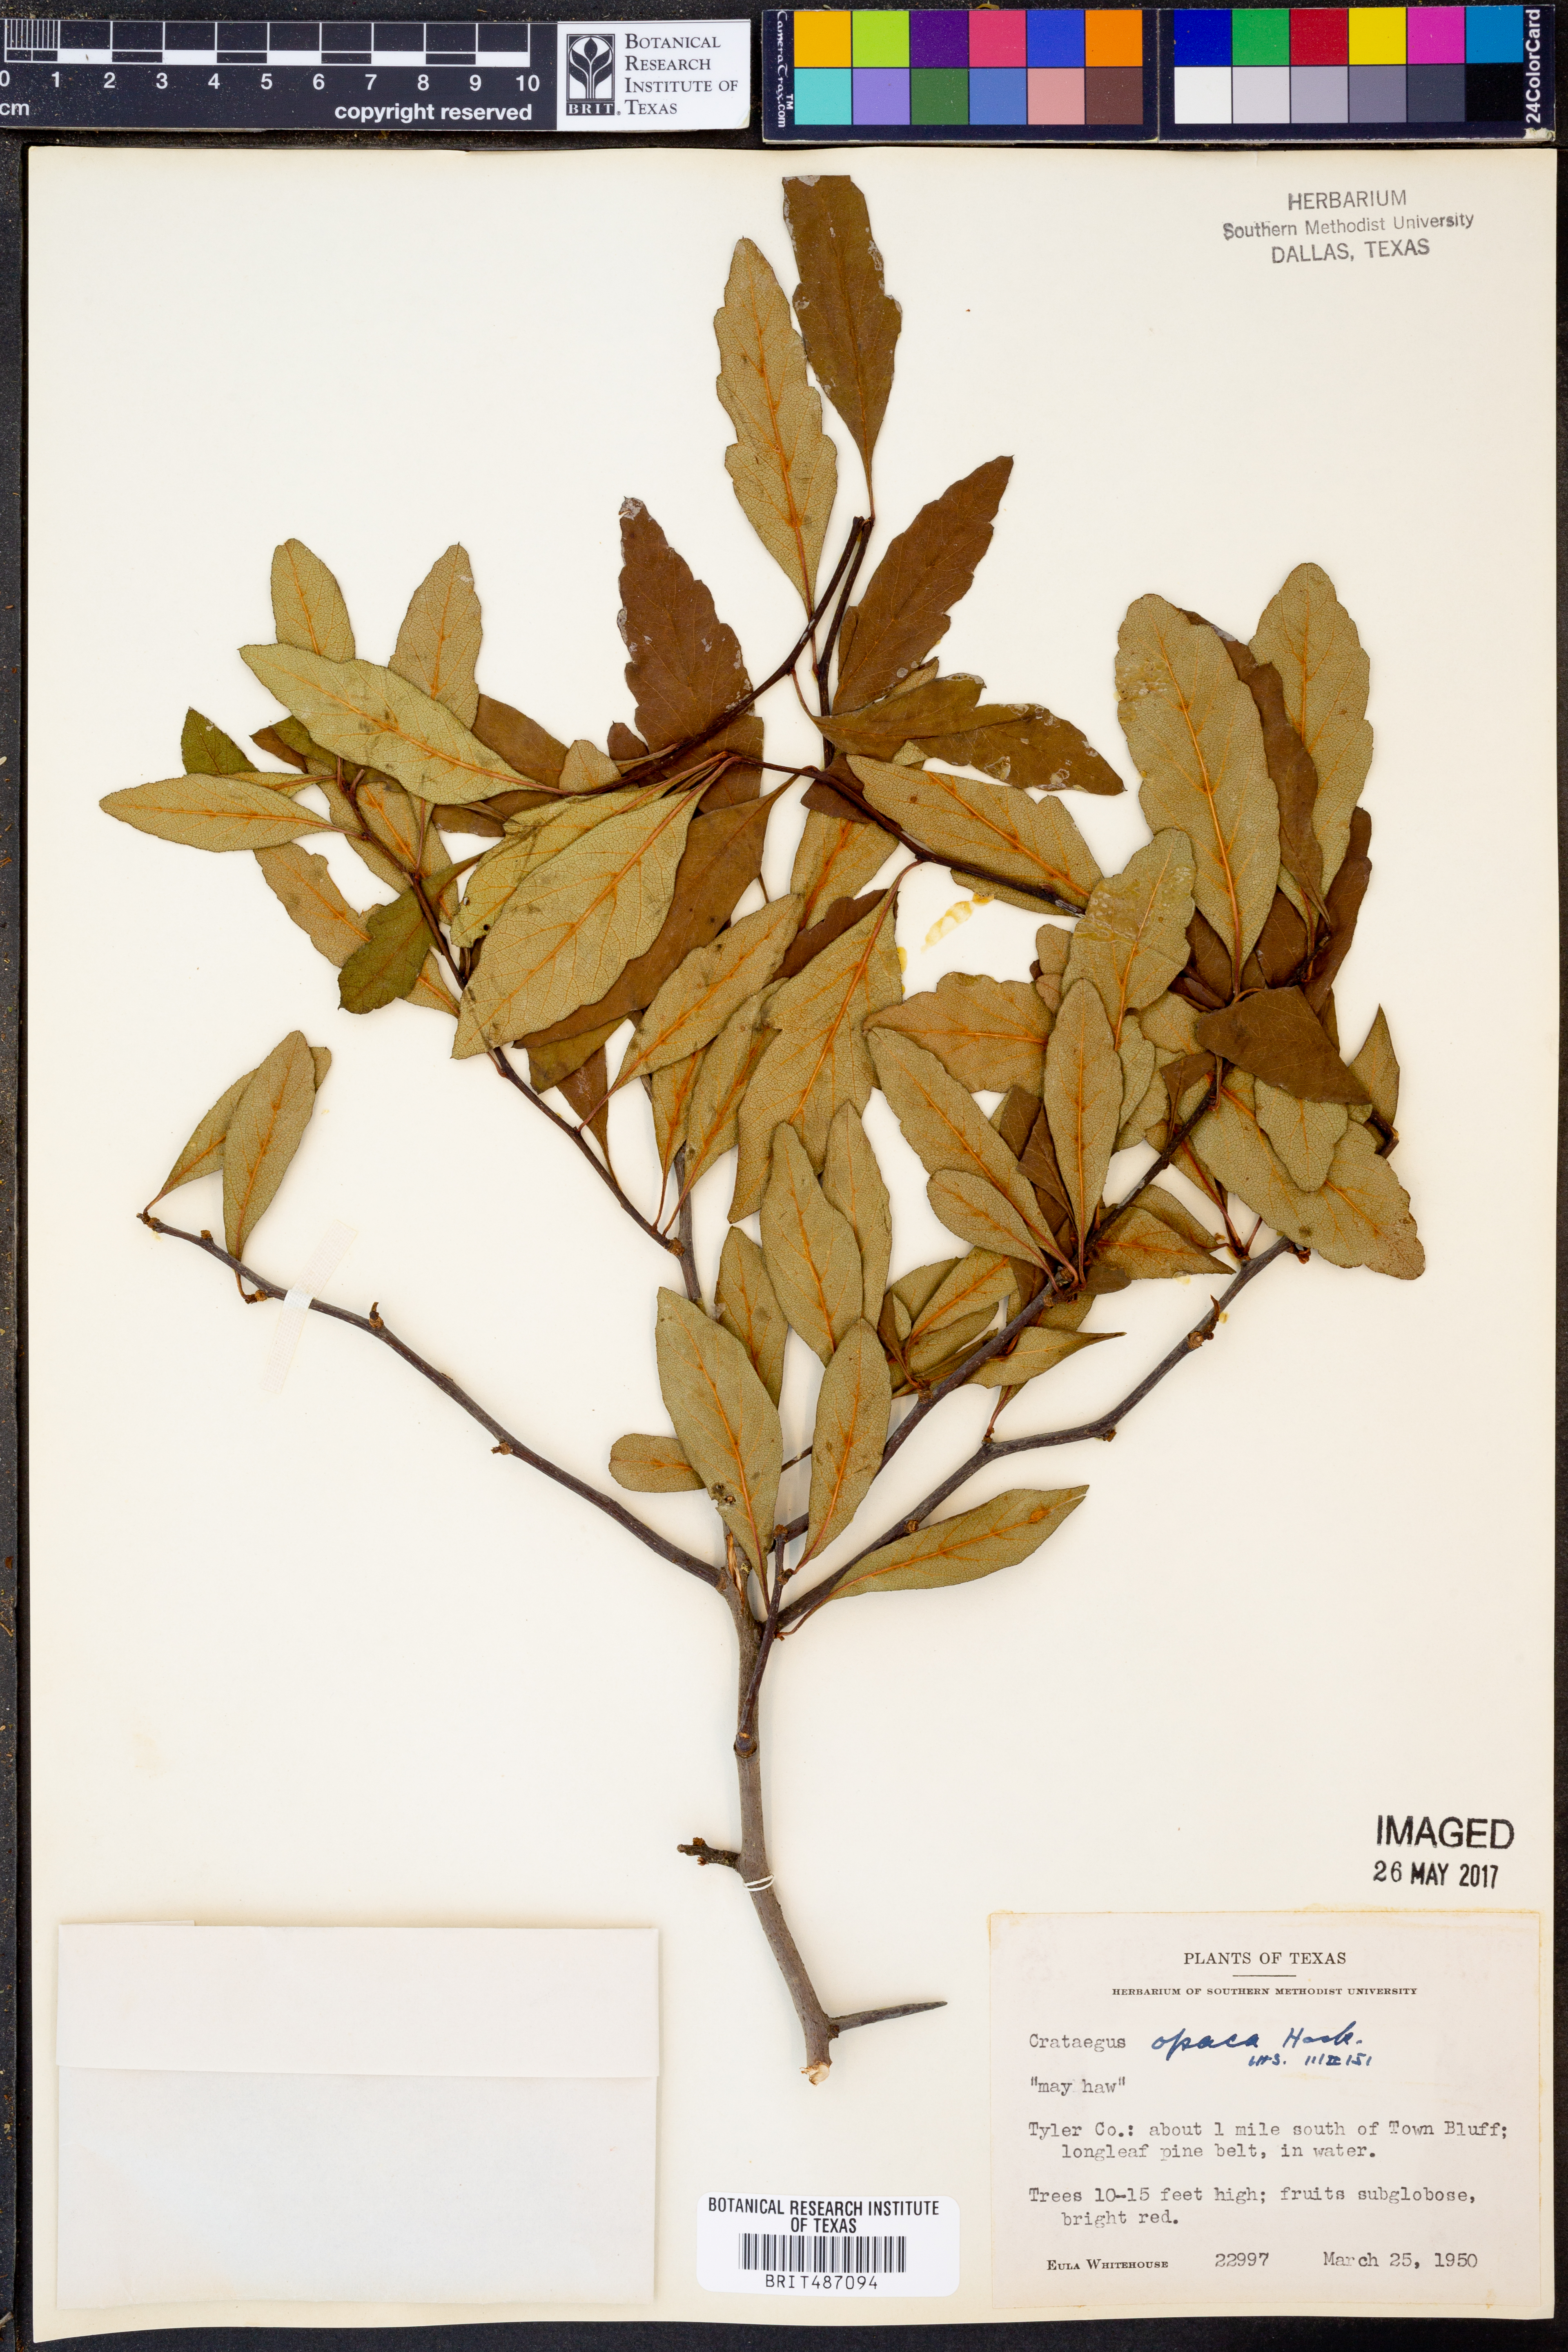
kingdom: Plantae
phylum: Tracheophyta
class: Magnoliopsida
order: Rosales
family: Rosaceae
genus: Crataegus
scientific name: Crataegus opaca
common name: Apple haw
